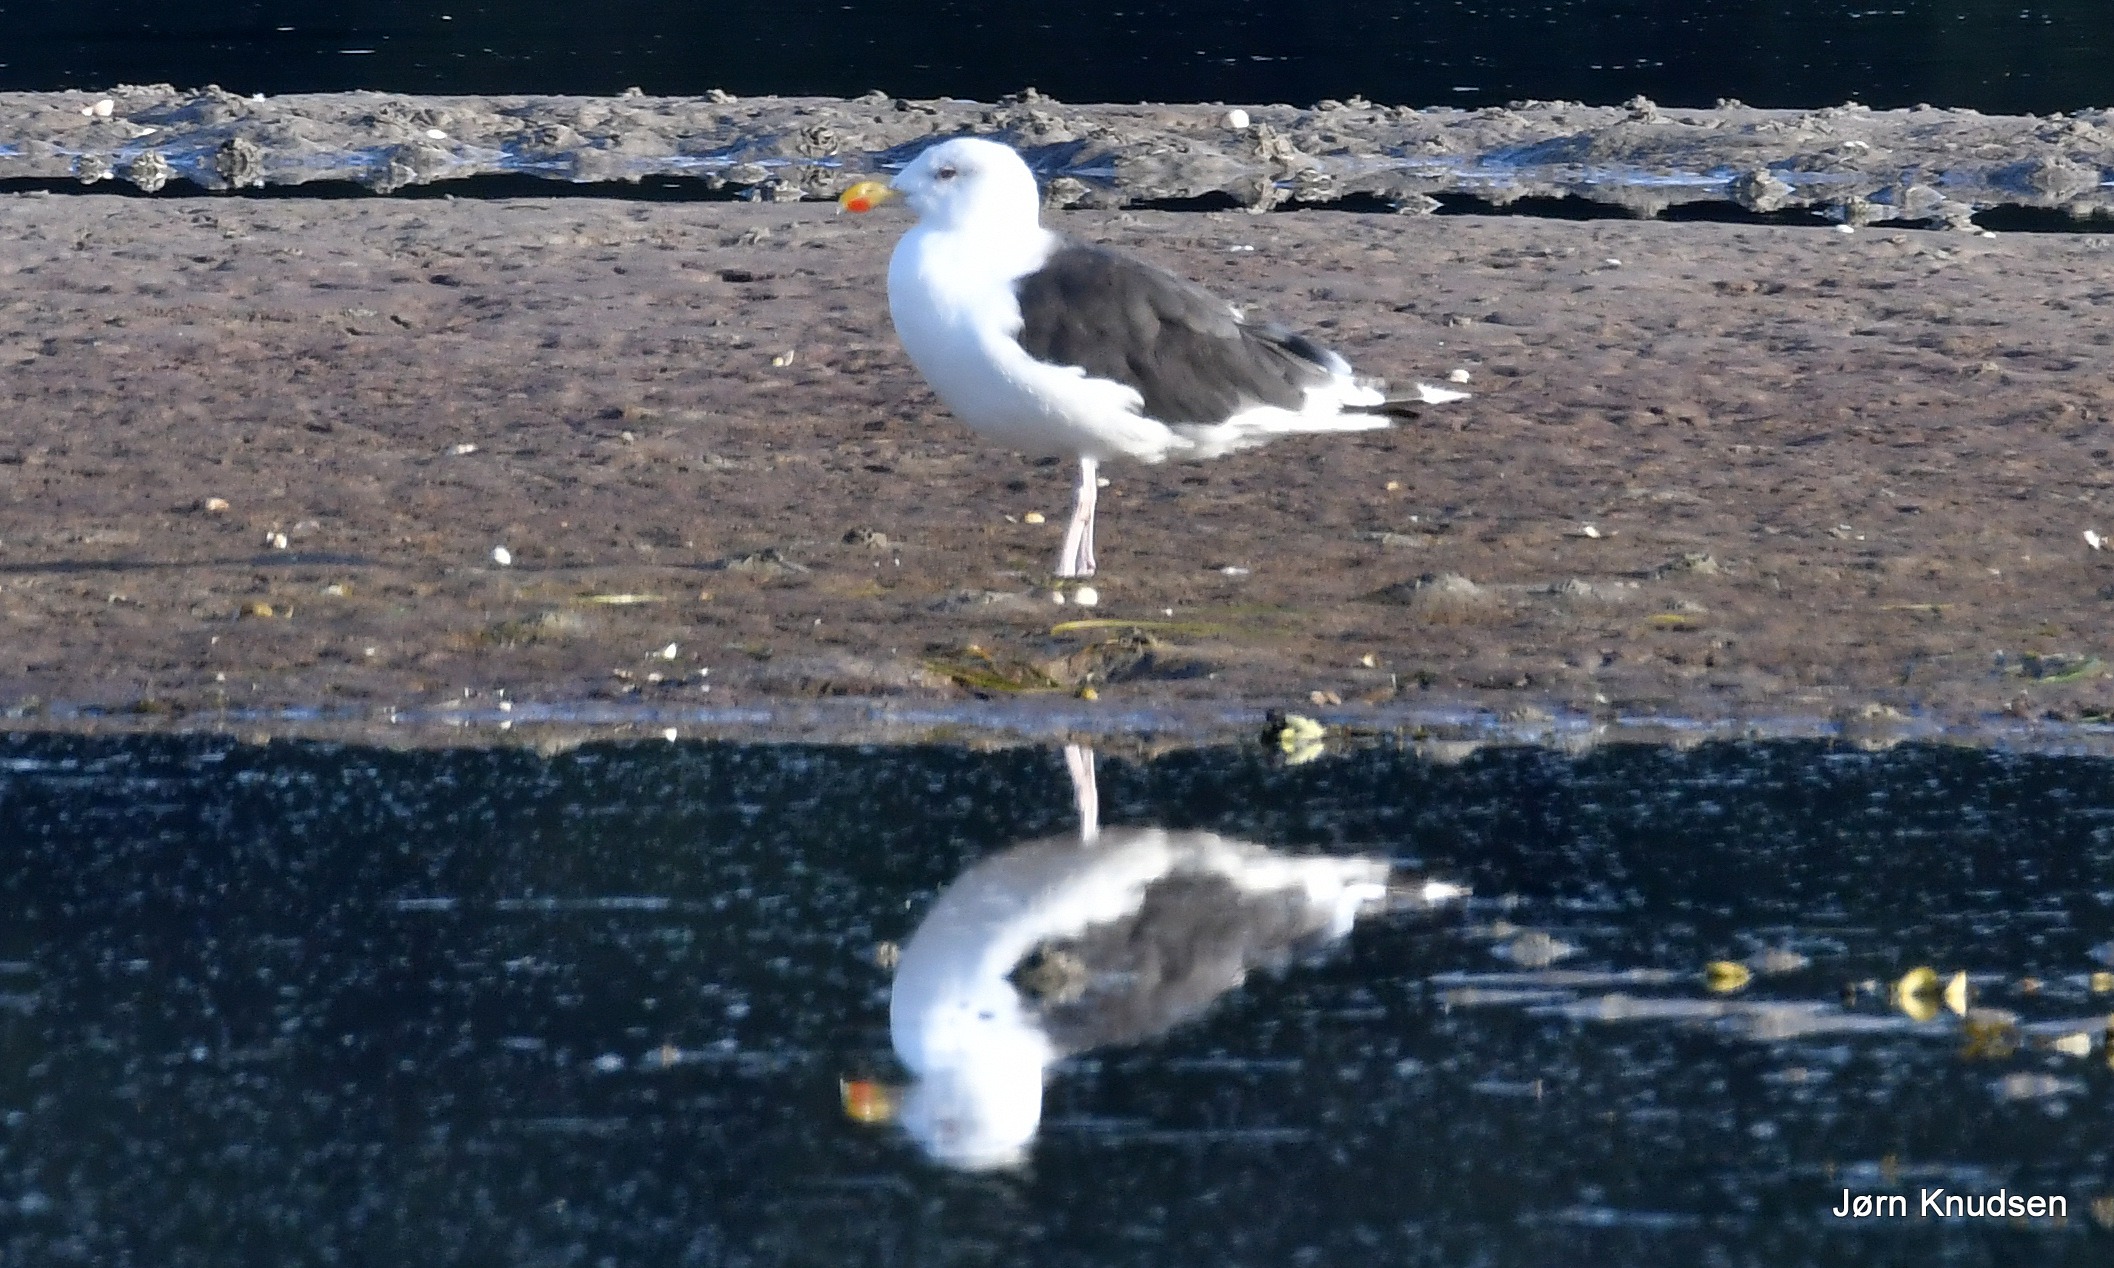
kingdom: Animalia
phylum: Chordata
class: Aves
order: Charadriiformes
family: Laridae
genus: Larus
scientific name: Larus marinus
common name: Svartbag
